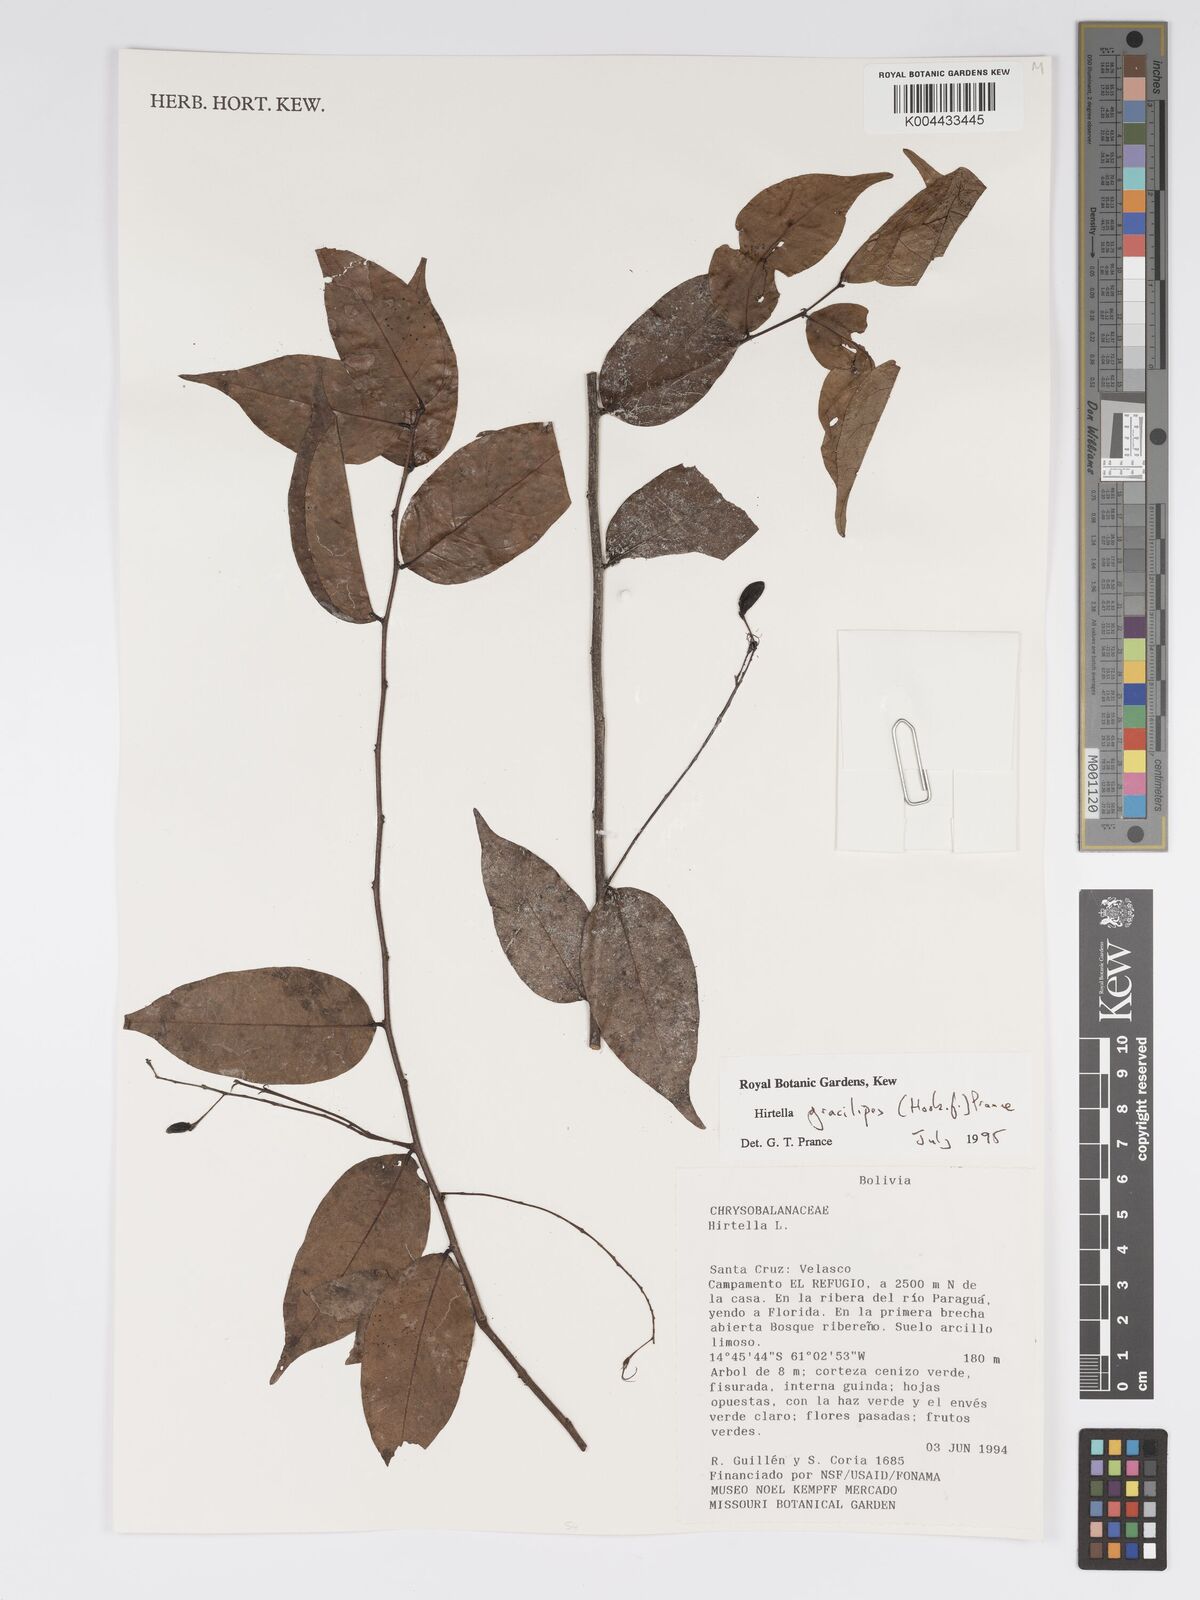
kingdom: Plantae
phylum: Tracheophyta
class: Magnoliopsida
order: Malpighiales
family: Chrysobalanaceae
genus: Hirtella
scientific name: Hirtella gracilipes
